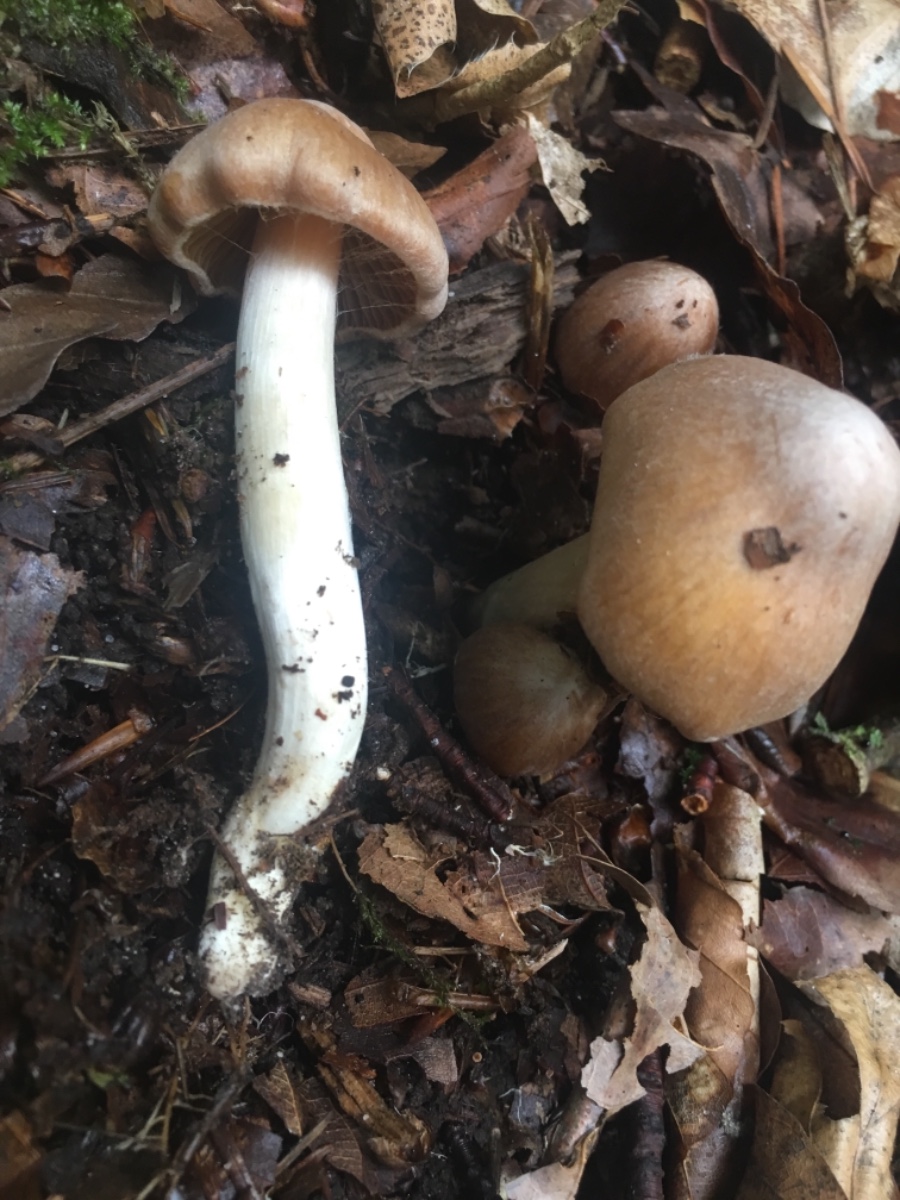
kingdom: Fungi
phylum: Basidiomycota
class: Agaricomycetes
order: Agaricales
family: Cortinariaceae
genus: Cortinarius
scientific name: Cortinarius
